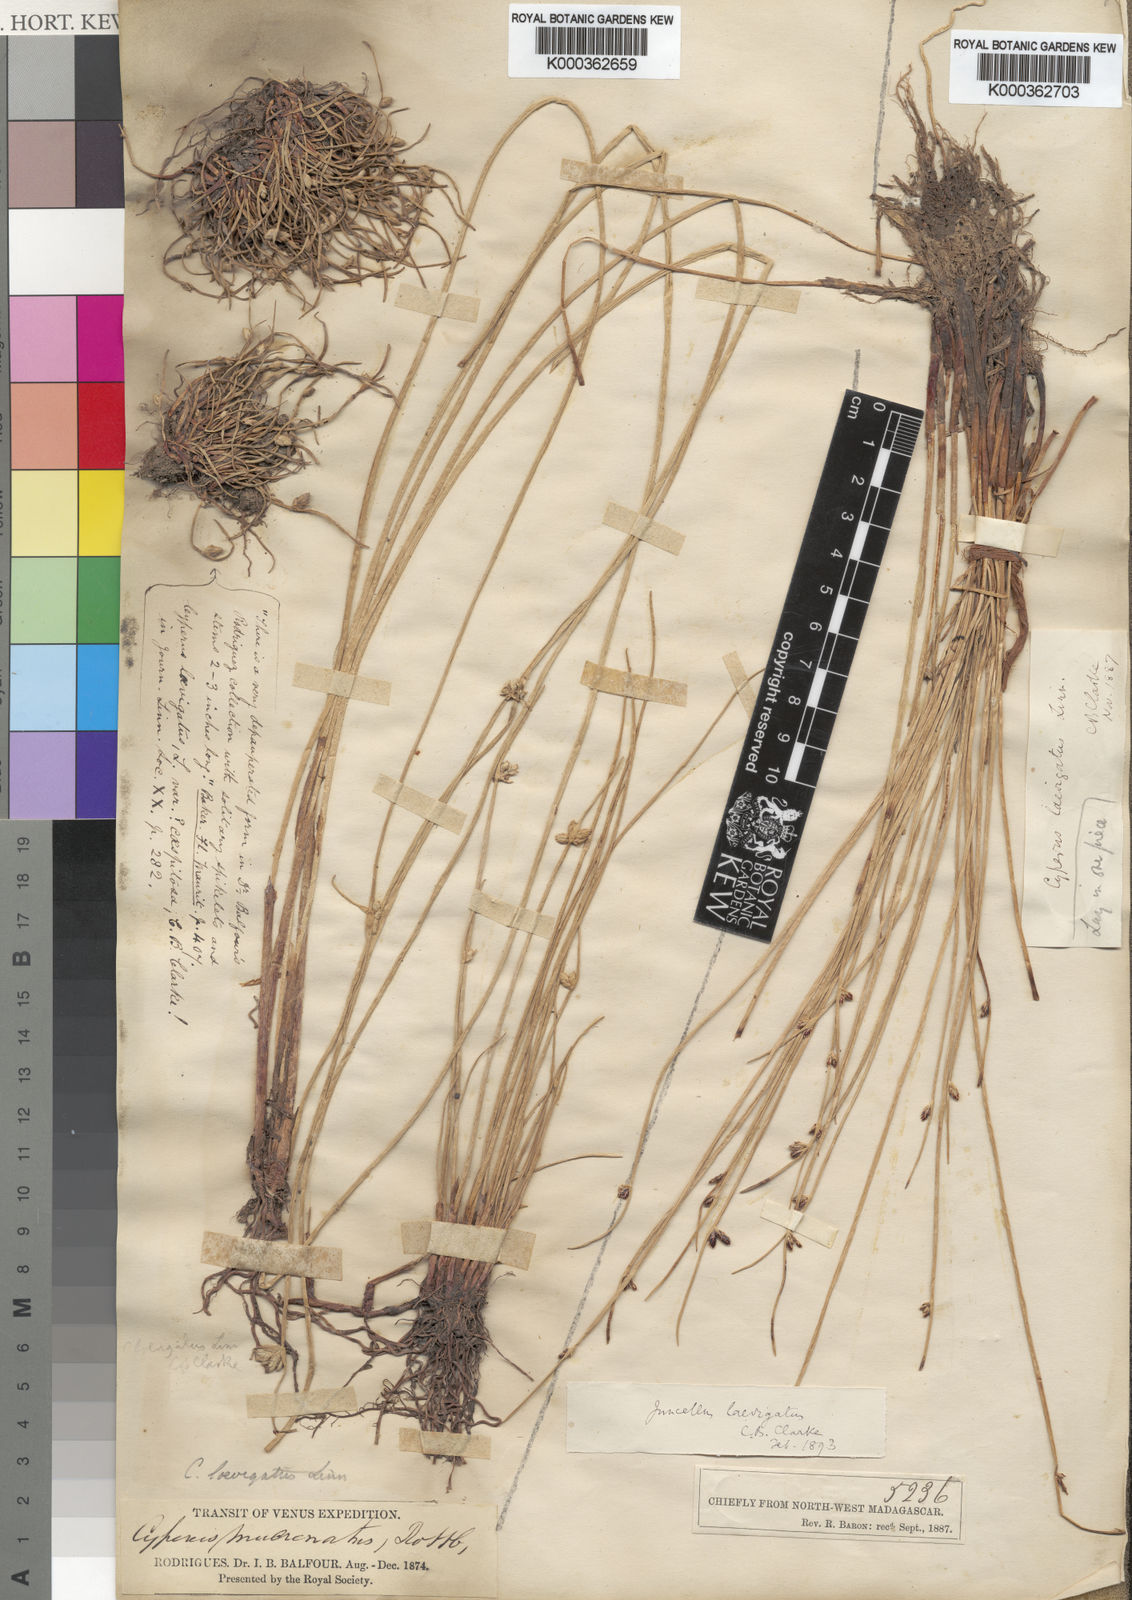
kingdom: Plantae
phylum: Tracheophyta
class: Liliopsida
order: Poales
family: Cyperaceae
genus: Cyperus
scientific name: Cyperus laevigatus
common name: Smooth flat sedge
